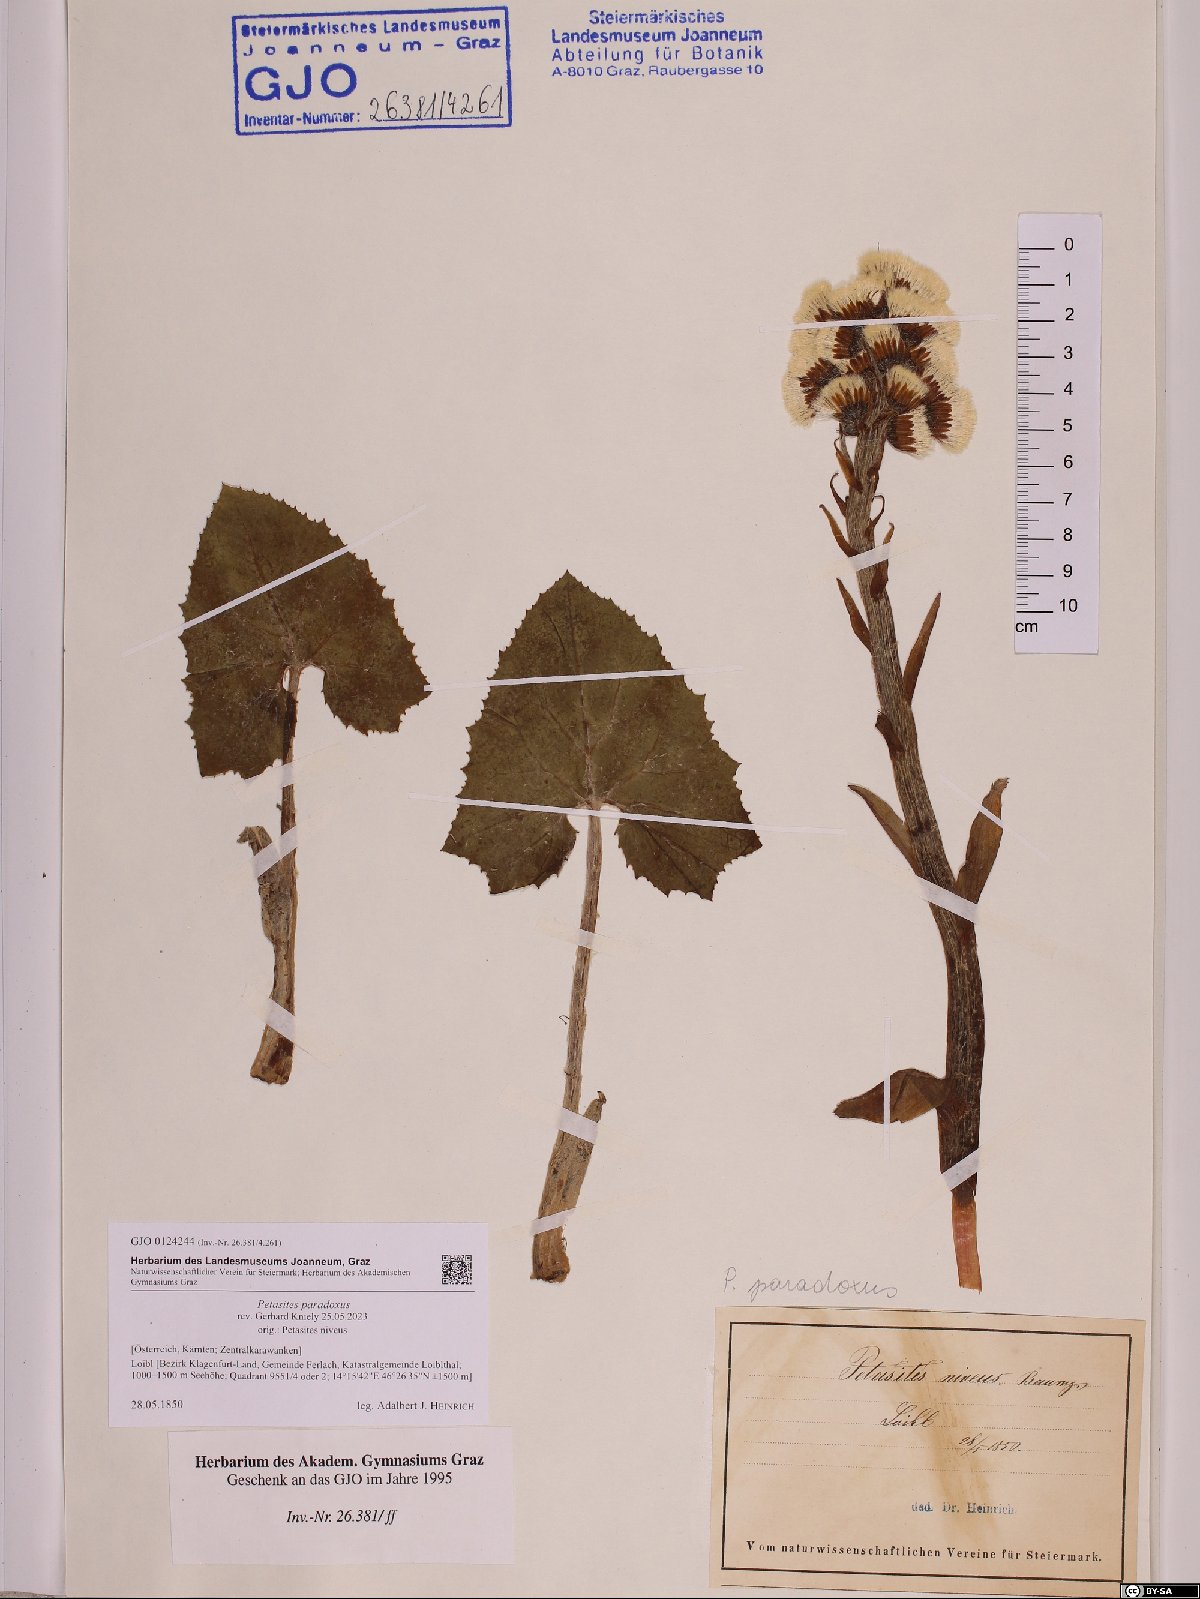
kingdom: Plantae
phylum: Tracheophyta
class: Magnoliopsida
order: Asterales
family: Asteraceae
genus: Petasites
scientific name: Petasites paradoxus
